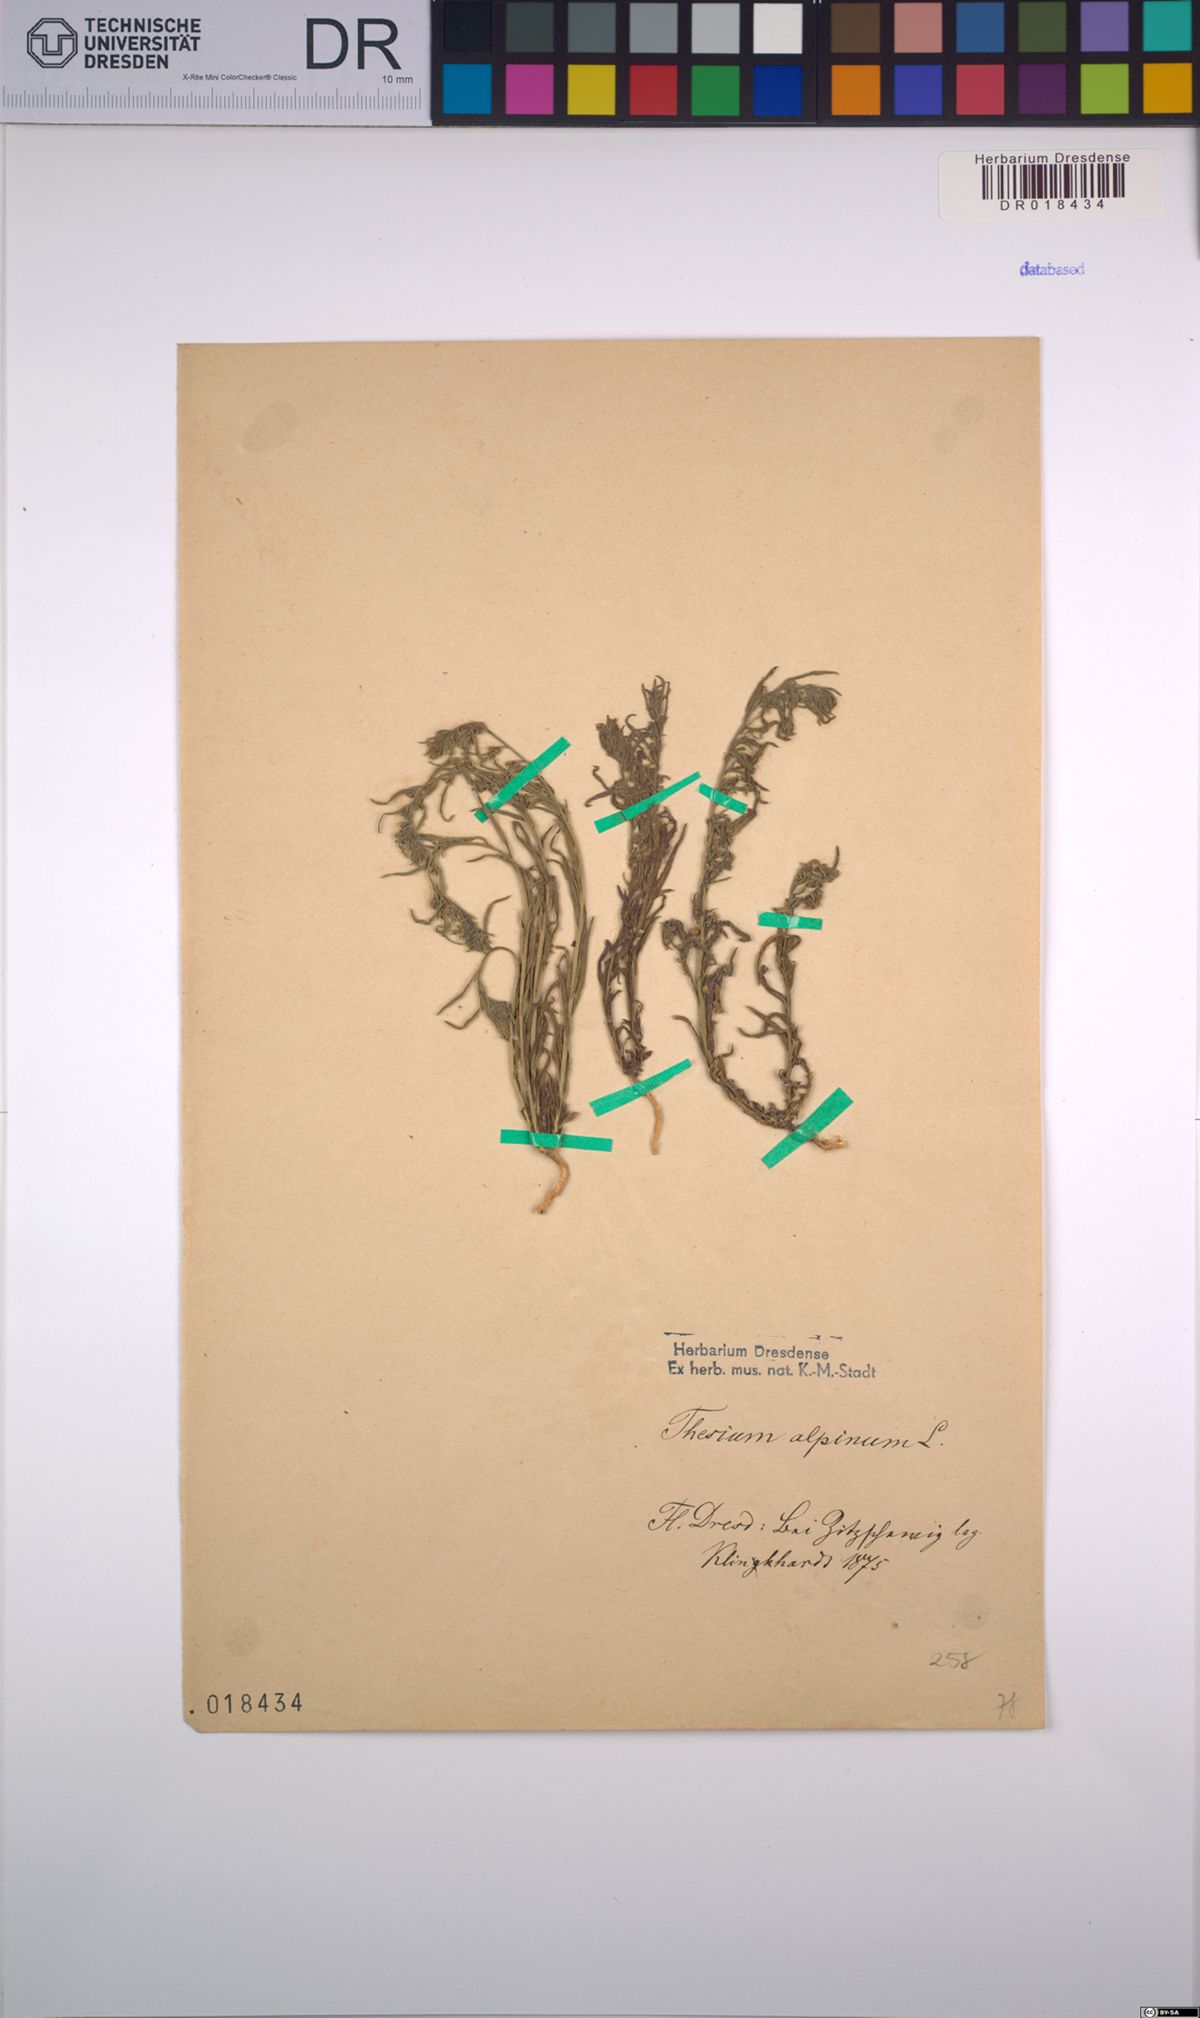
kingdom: Plantae
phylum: Tracheophyta
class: Magnoliopsida
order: Santalales
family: Thesiaceae
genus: Thesium
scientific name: Thesium alpinum
